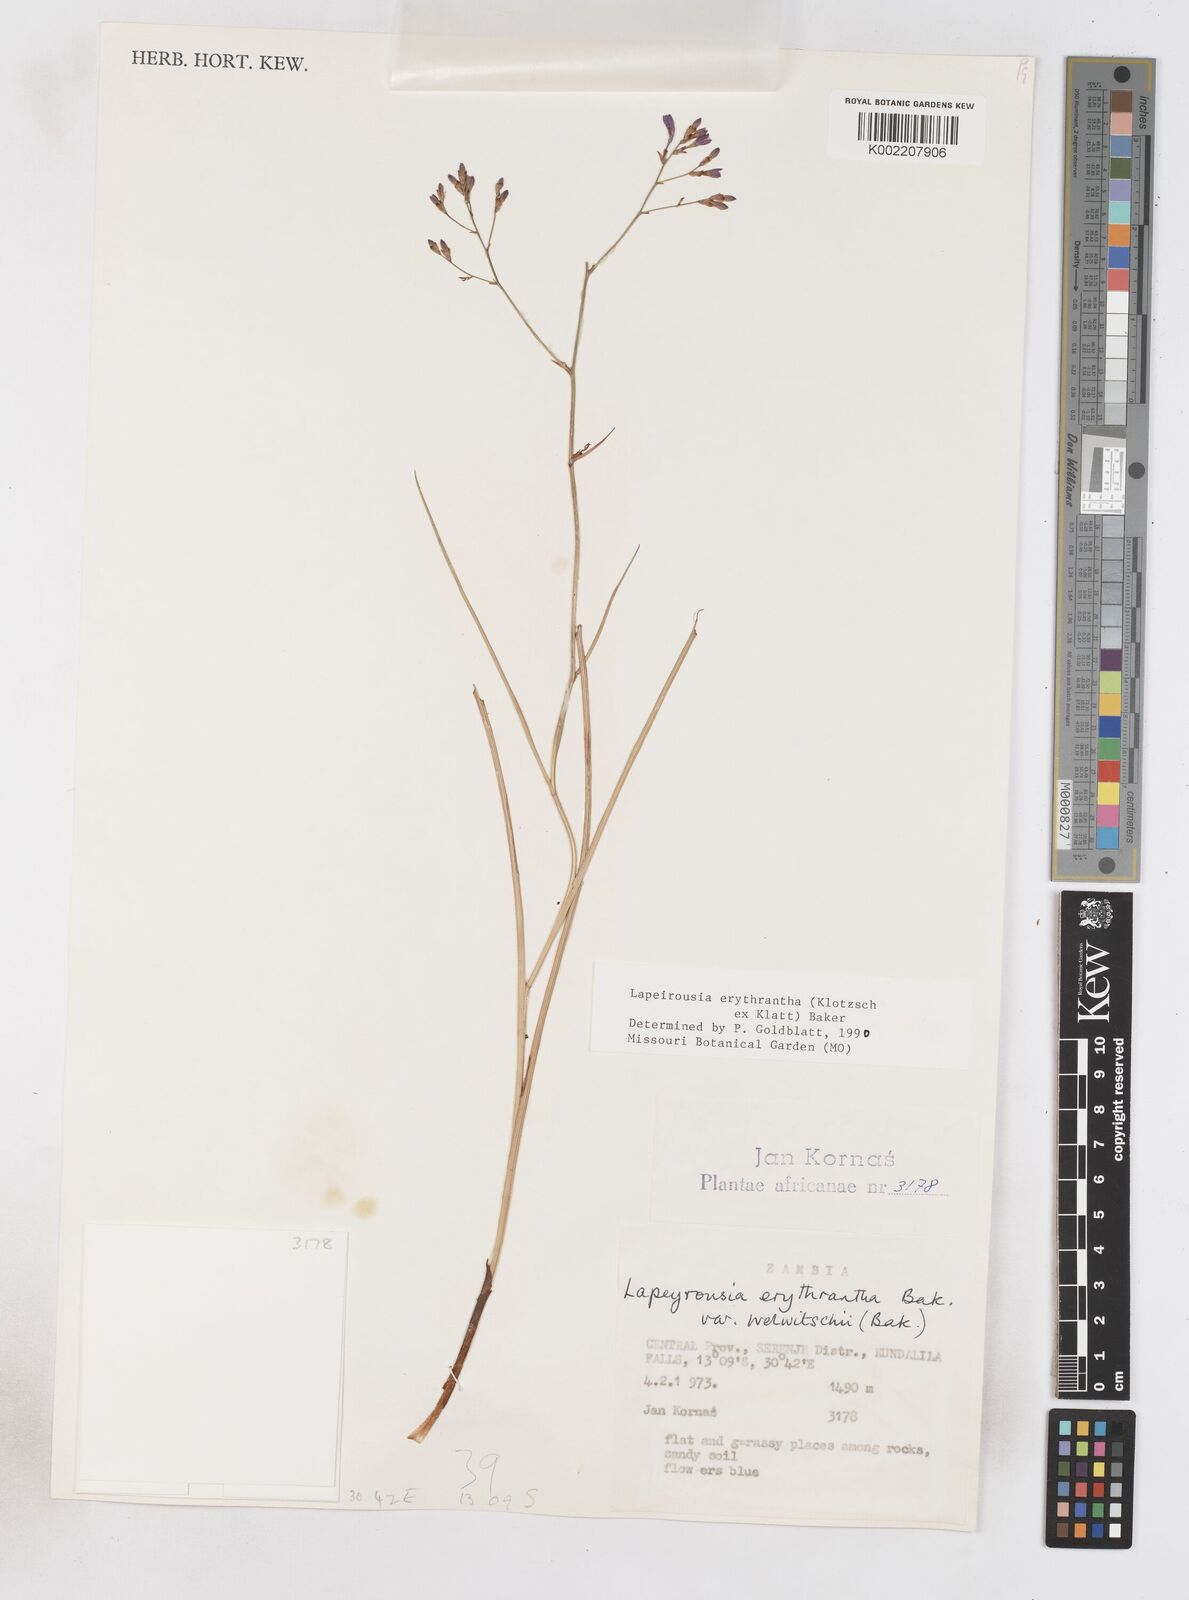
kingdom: Plantae
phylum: Tracheophyta
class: Liliopsida
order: Asparagales
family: Iridaceae
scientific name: Iridaceae
